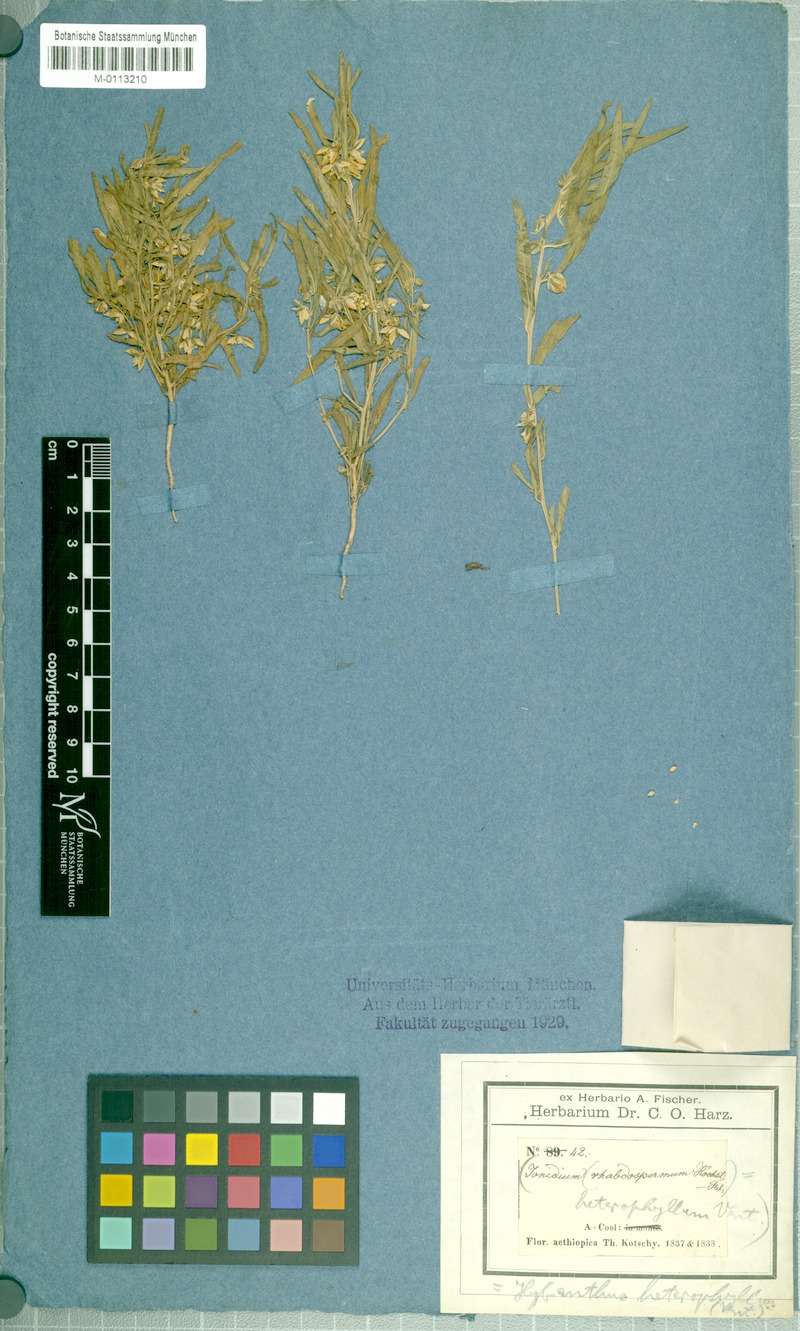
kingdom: Plantae
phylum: Tracheophyta
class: Magnoliopsida
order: Malpighiales
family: Violaceae
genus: Pigea
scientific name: Pigea enneasperma
